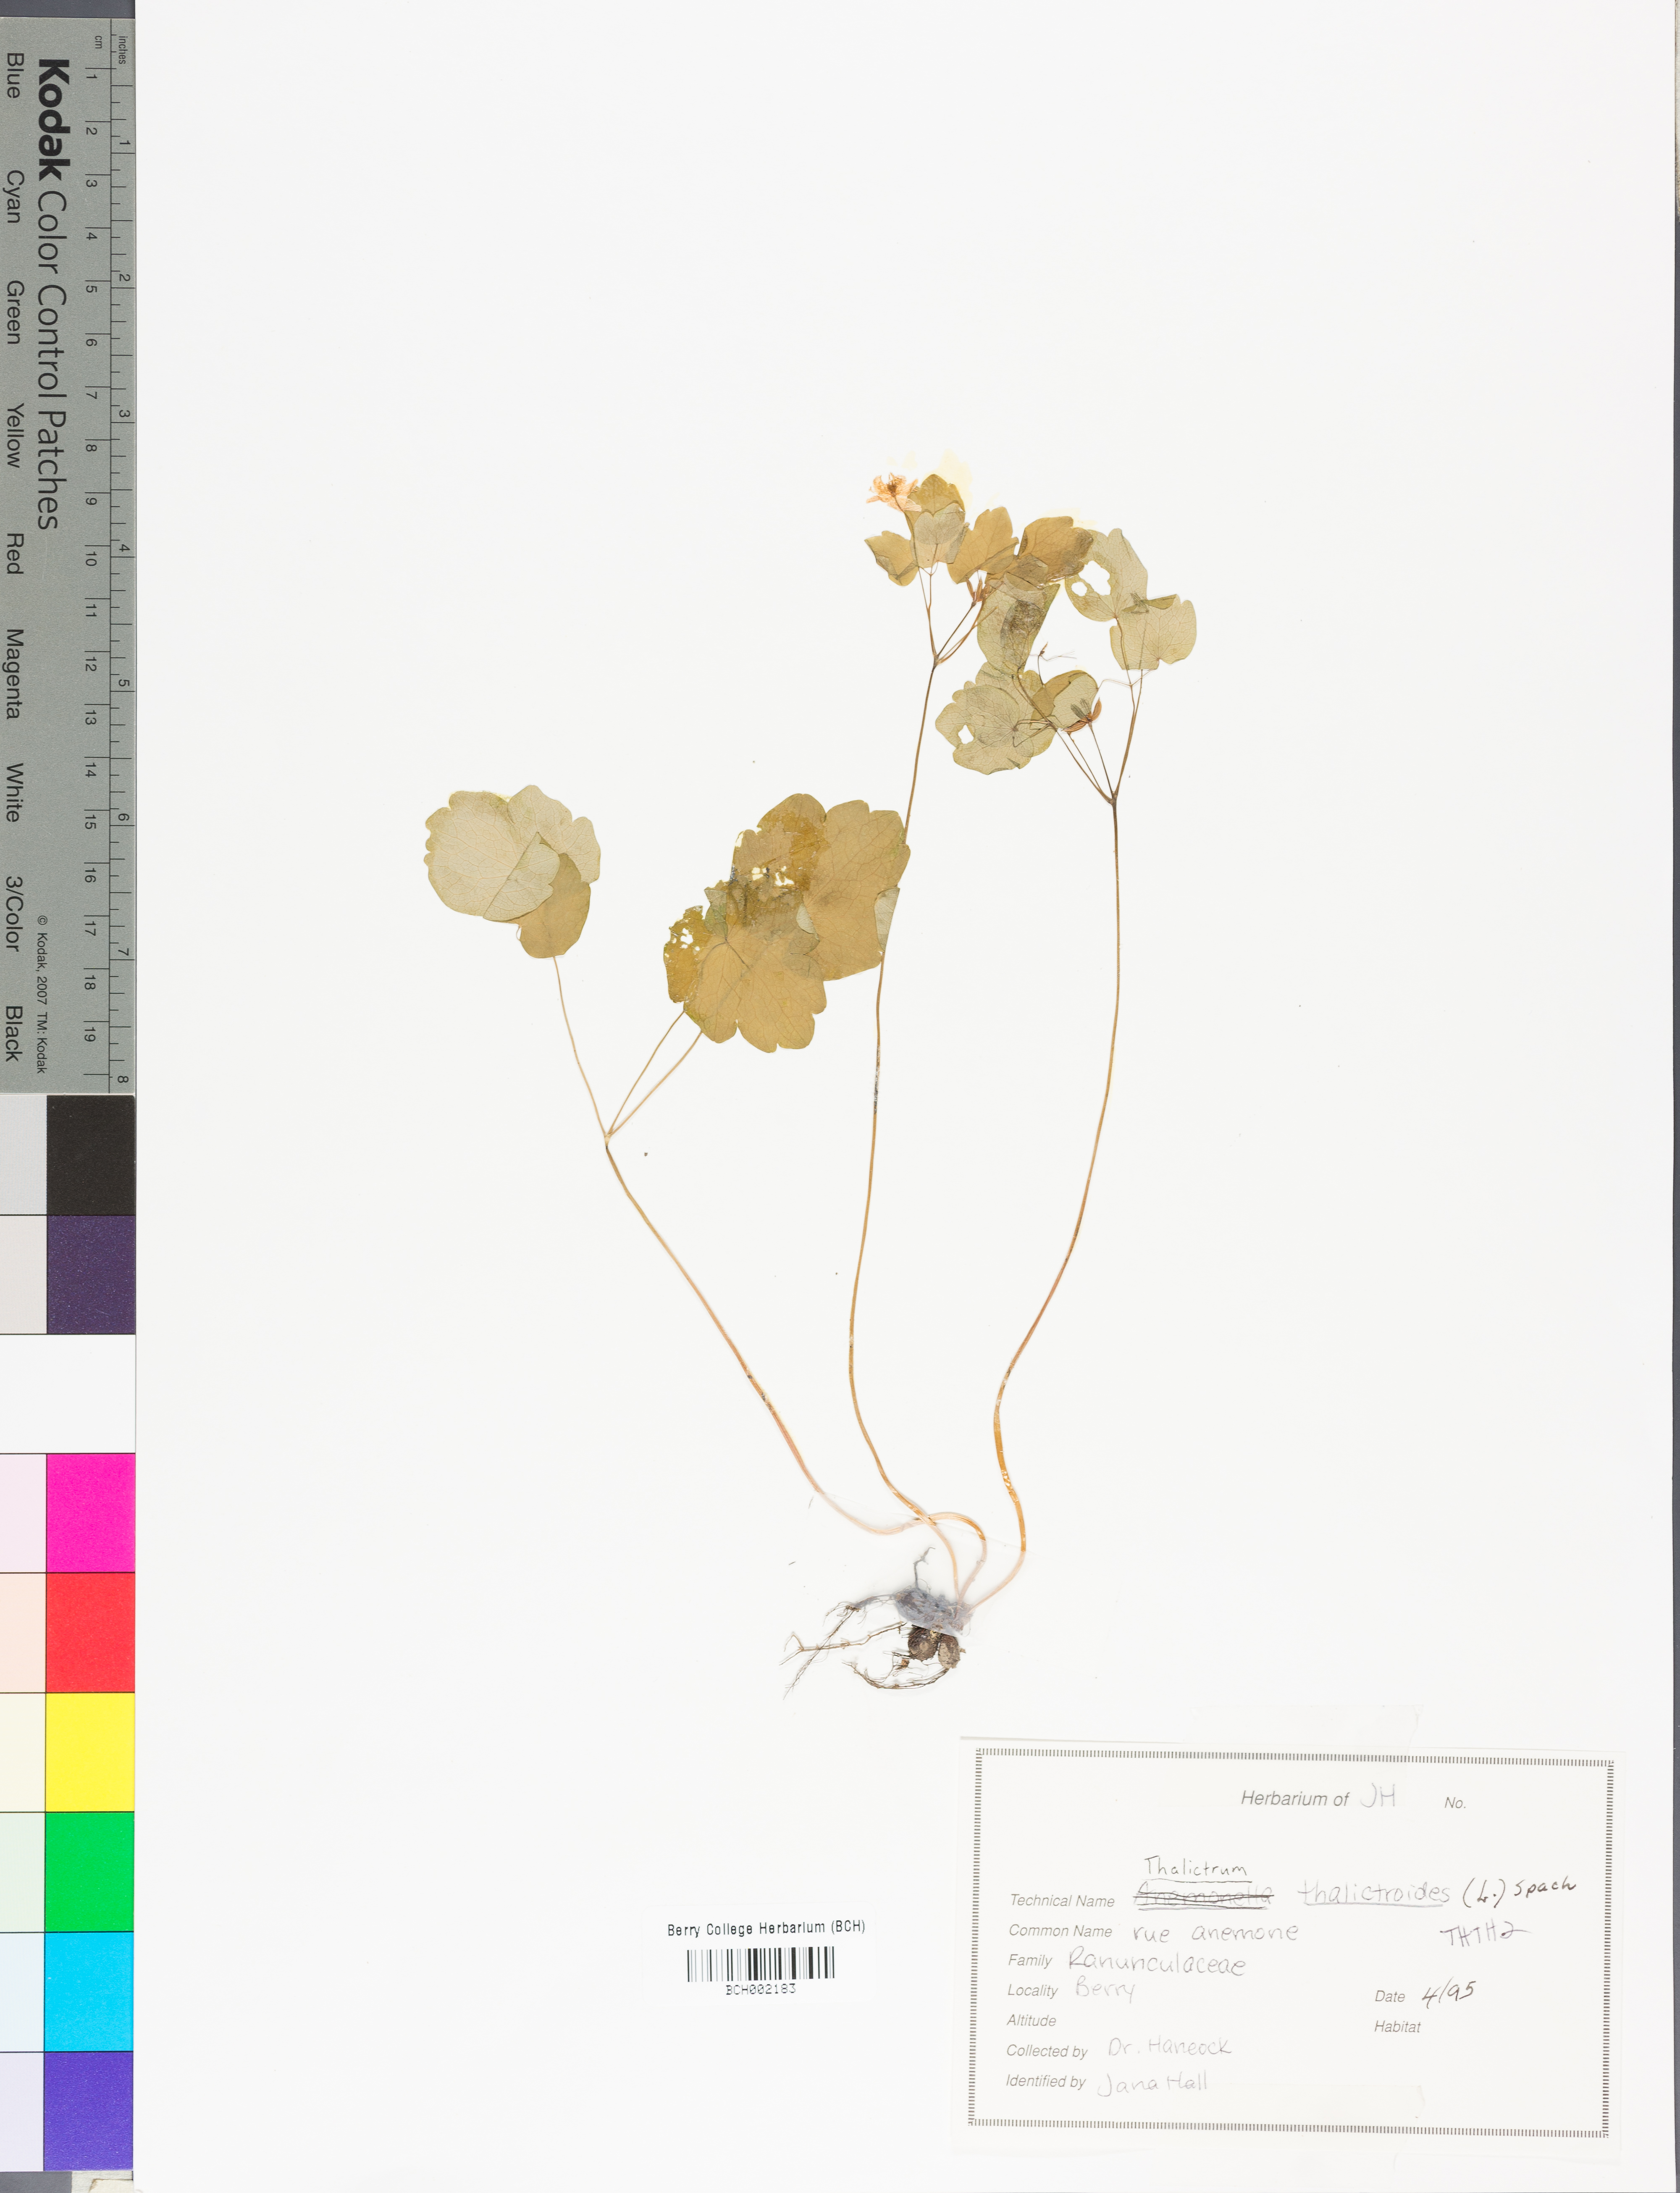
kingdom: Plantae
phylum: Tracheophyta
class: Magnoliopsida
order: Ranunculales
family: Ranunculaceae
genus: Thalictrum
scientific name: Thalictrum thalictroides
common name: Rue-anemone
